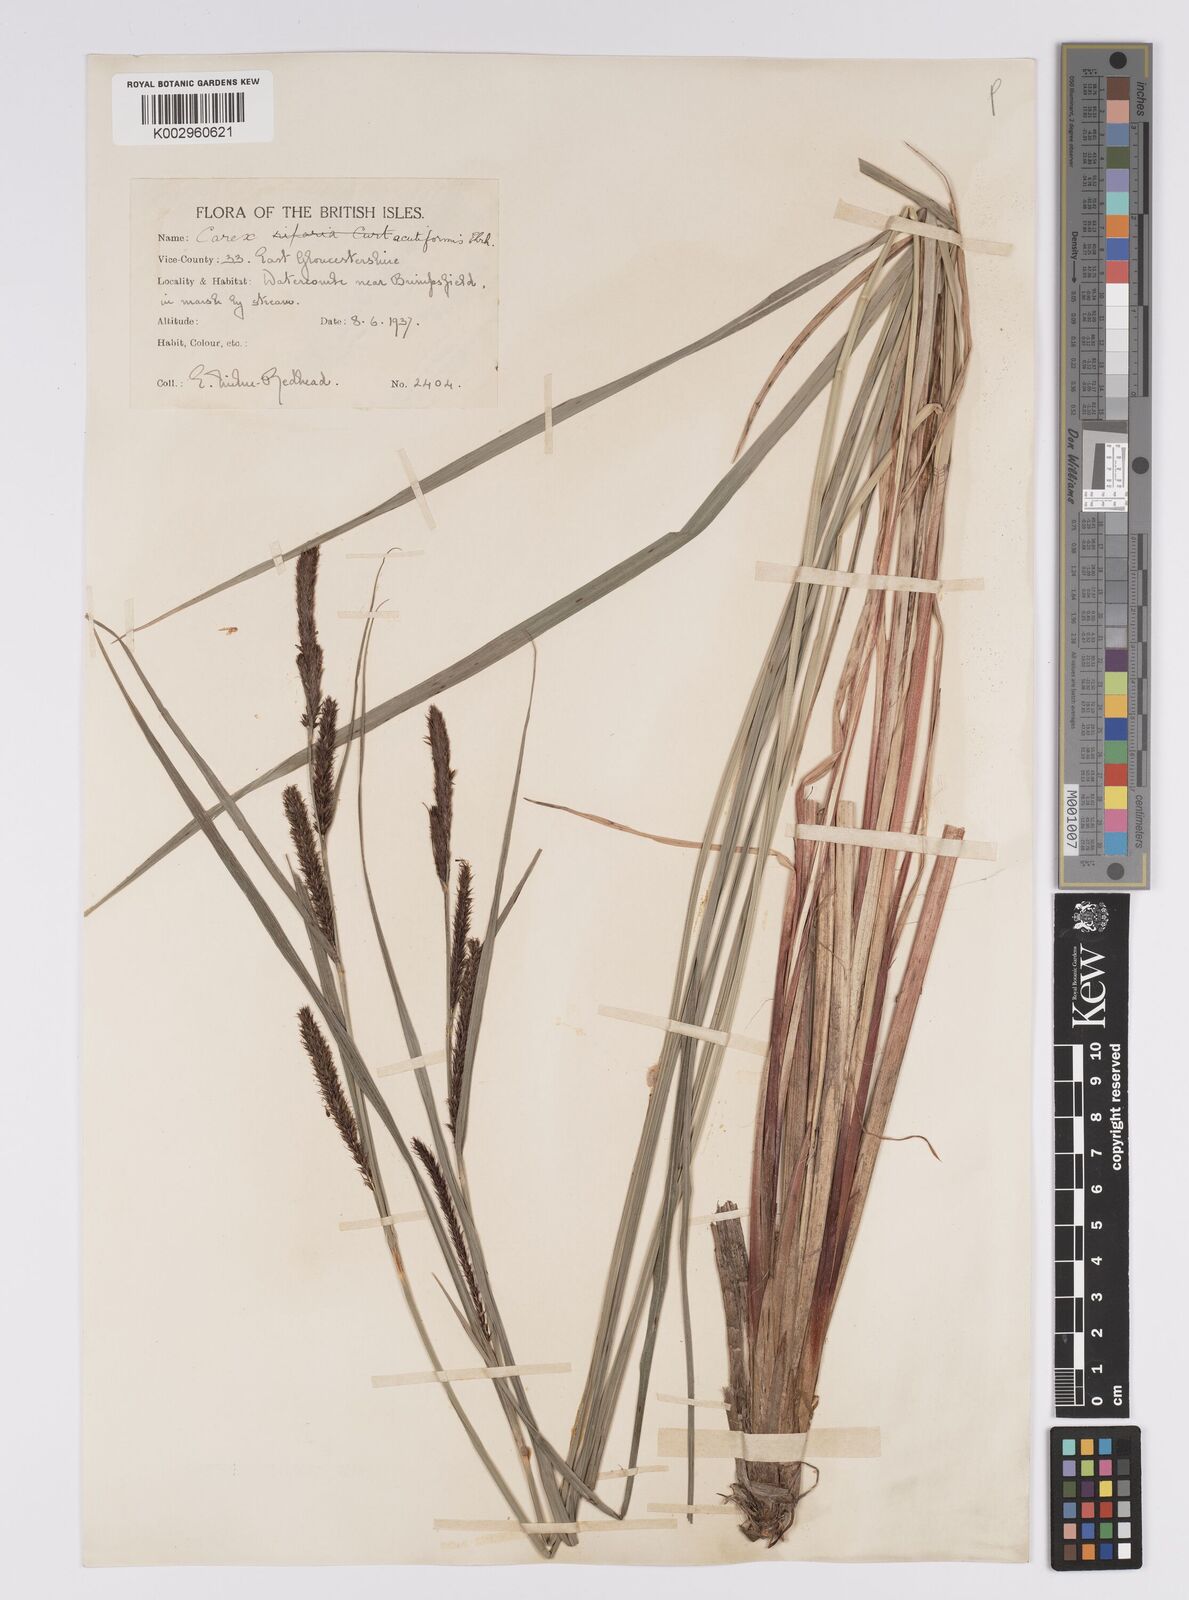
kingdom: Plantae
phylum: Tracheophyta
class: Liliopsida
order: Poales
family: Cyperaceae
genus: Carex
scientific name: Carex acutiformis
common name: Lesser pond-sedge
